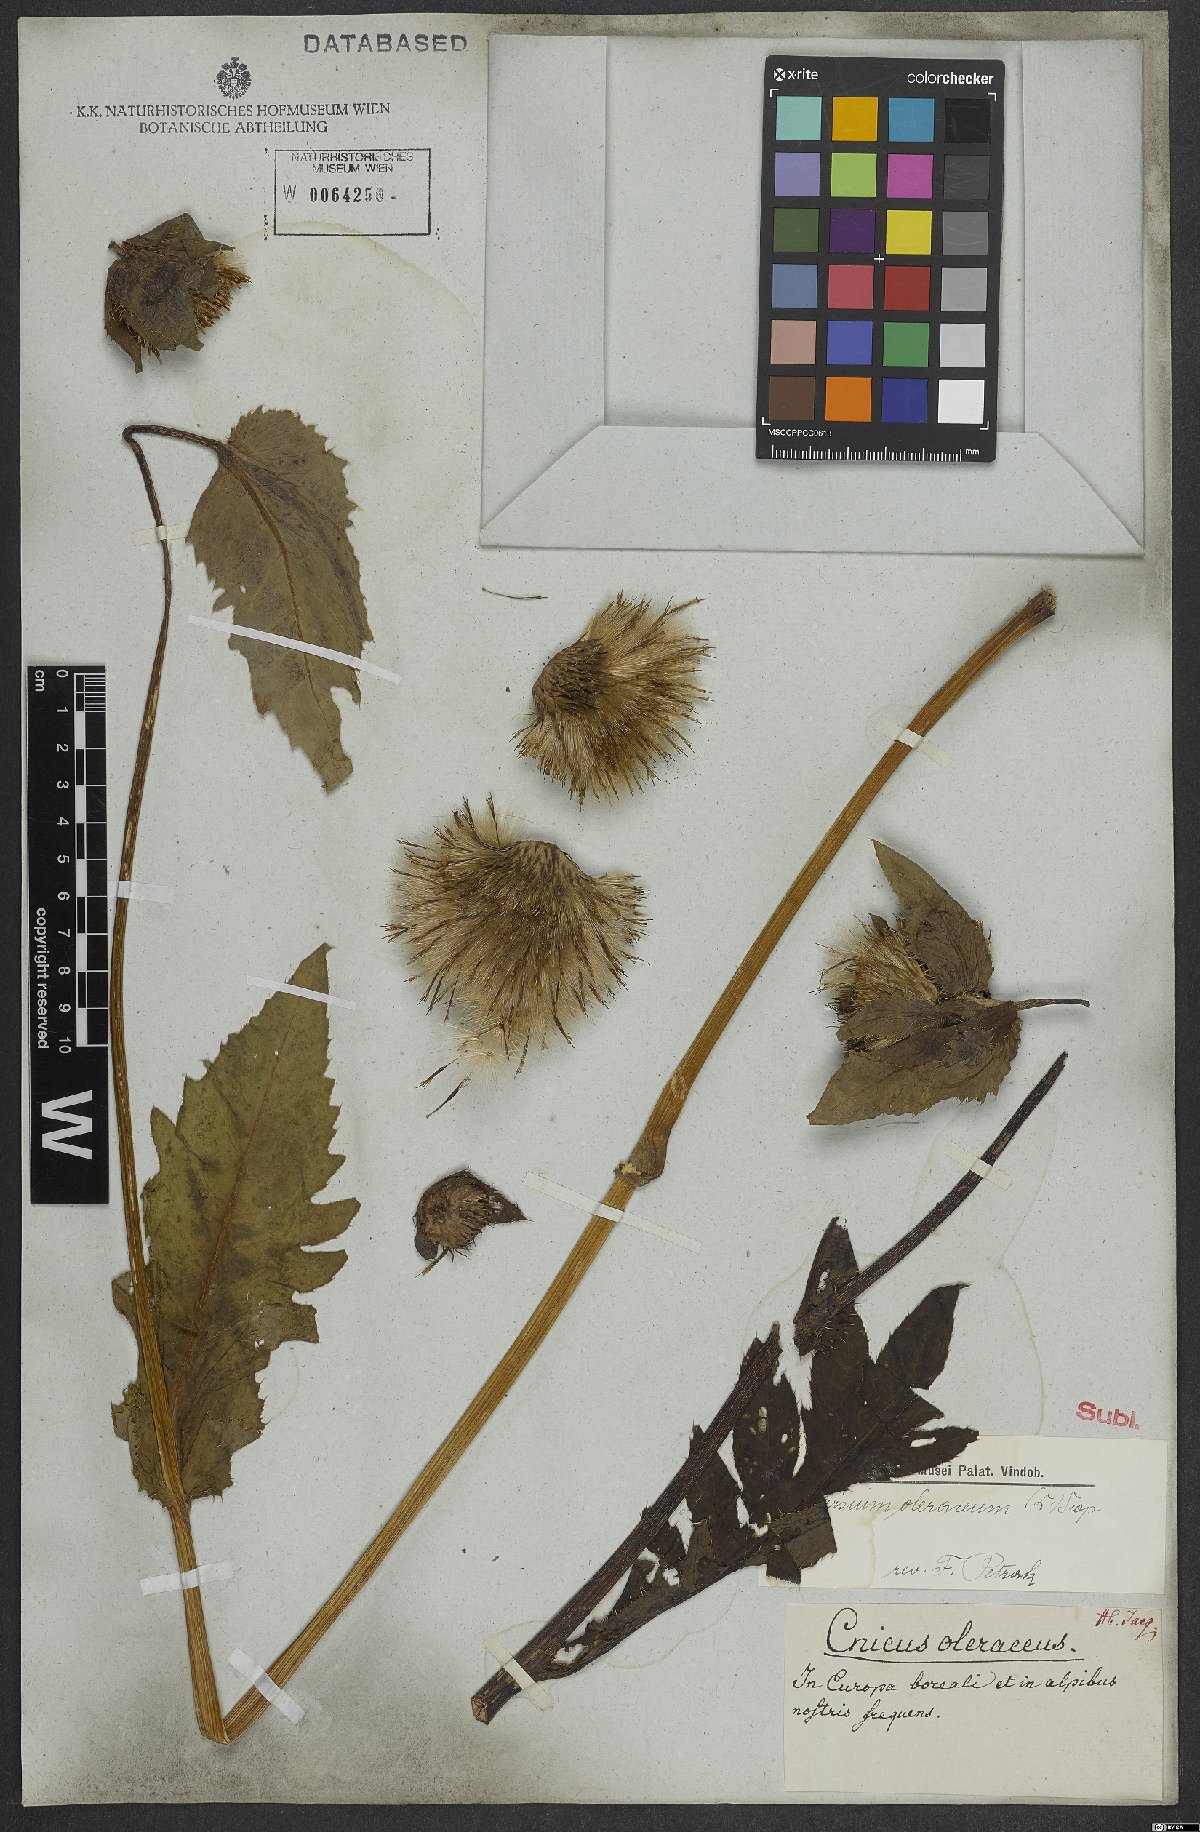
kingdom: Plantae
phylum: Tracheophyta
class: Magnoliopsida
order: Asterales
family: Asteraceae
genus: Cirsium
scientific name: Cirsium oleraceum
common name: Cabbage thistle
